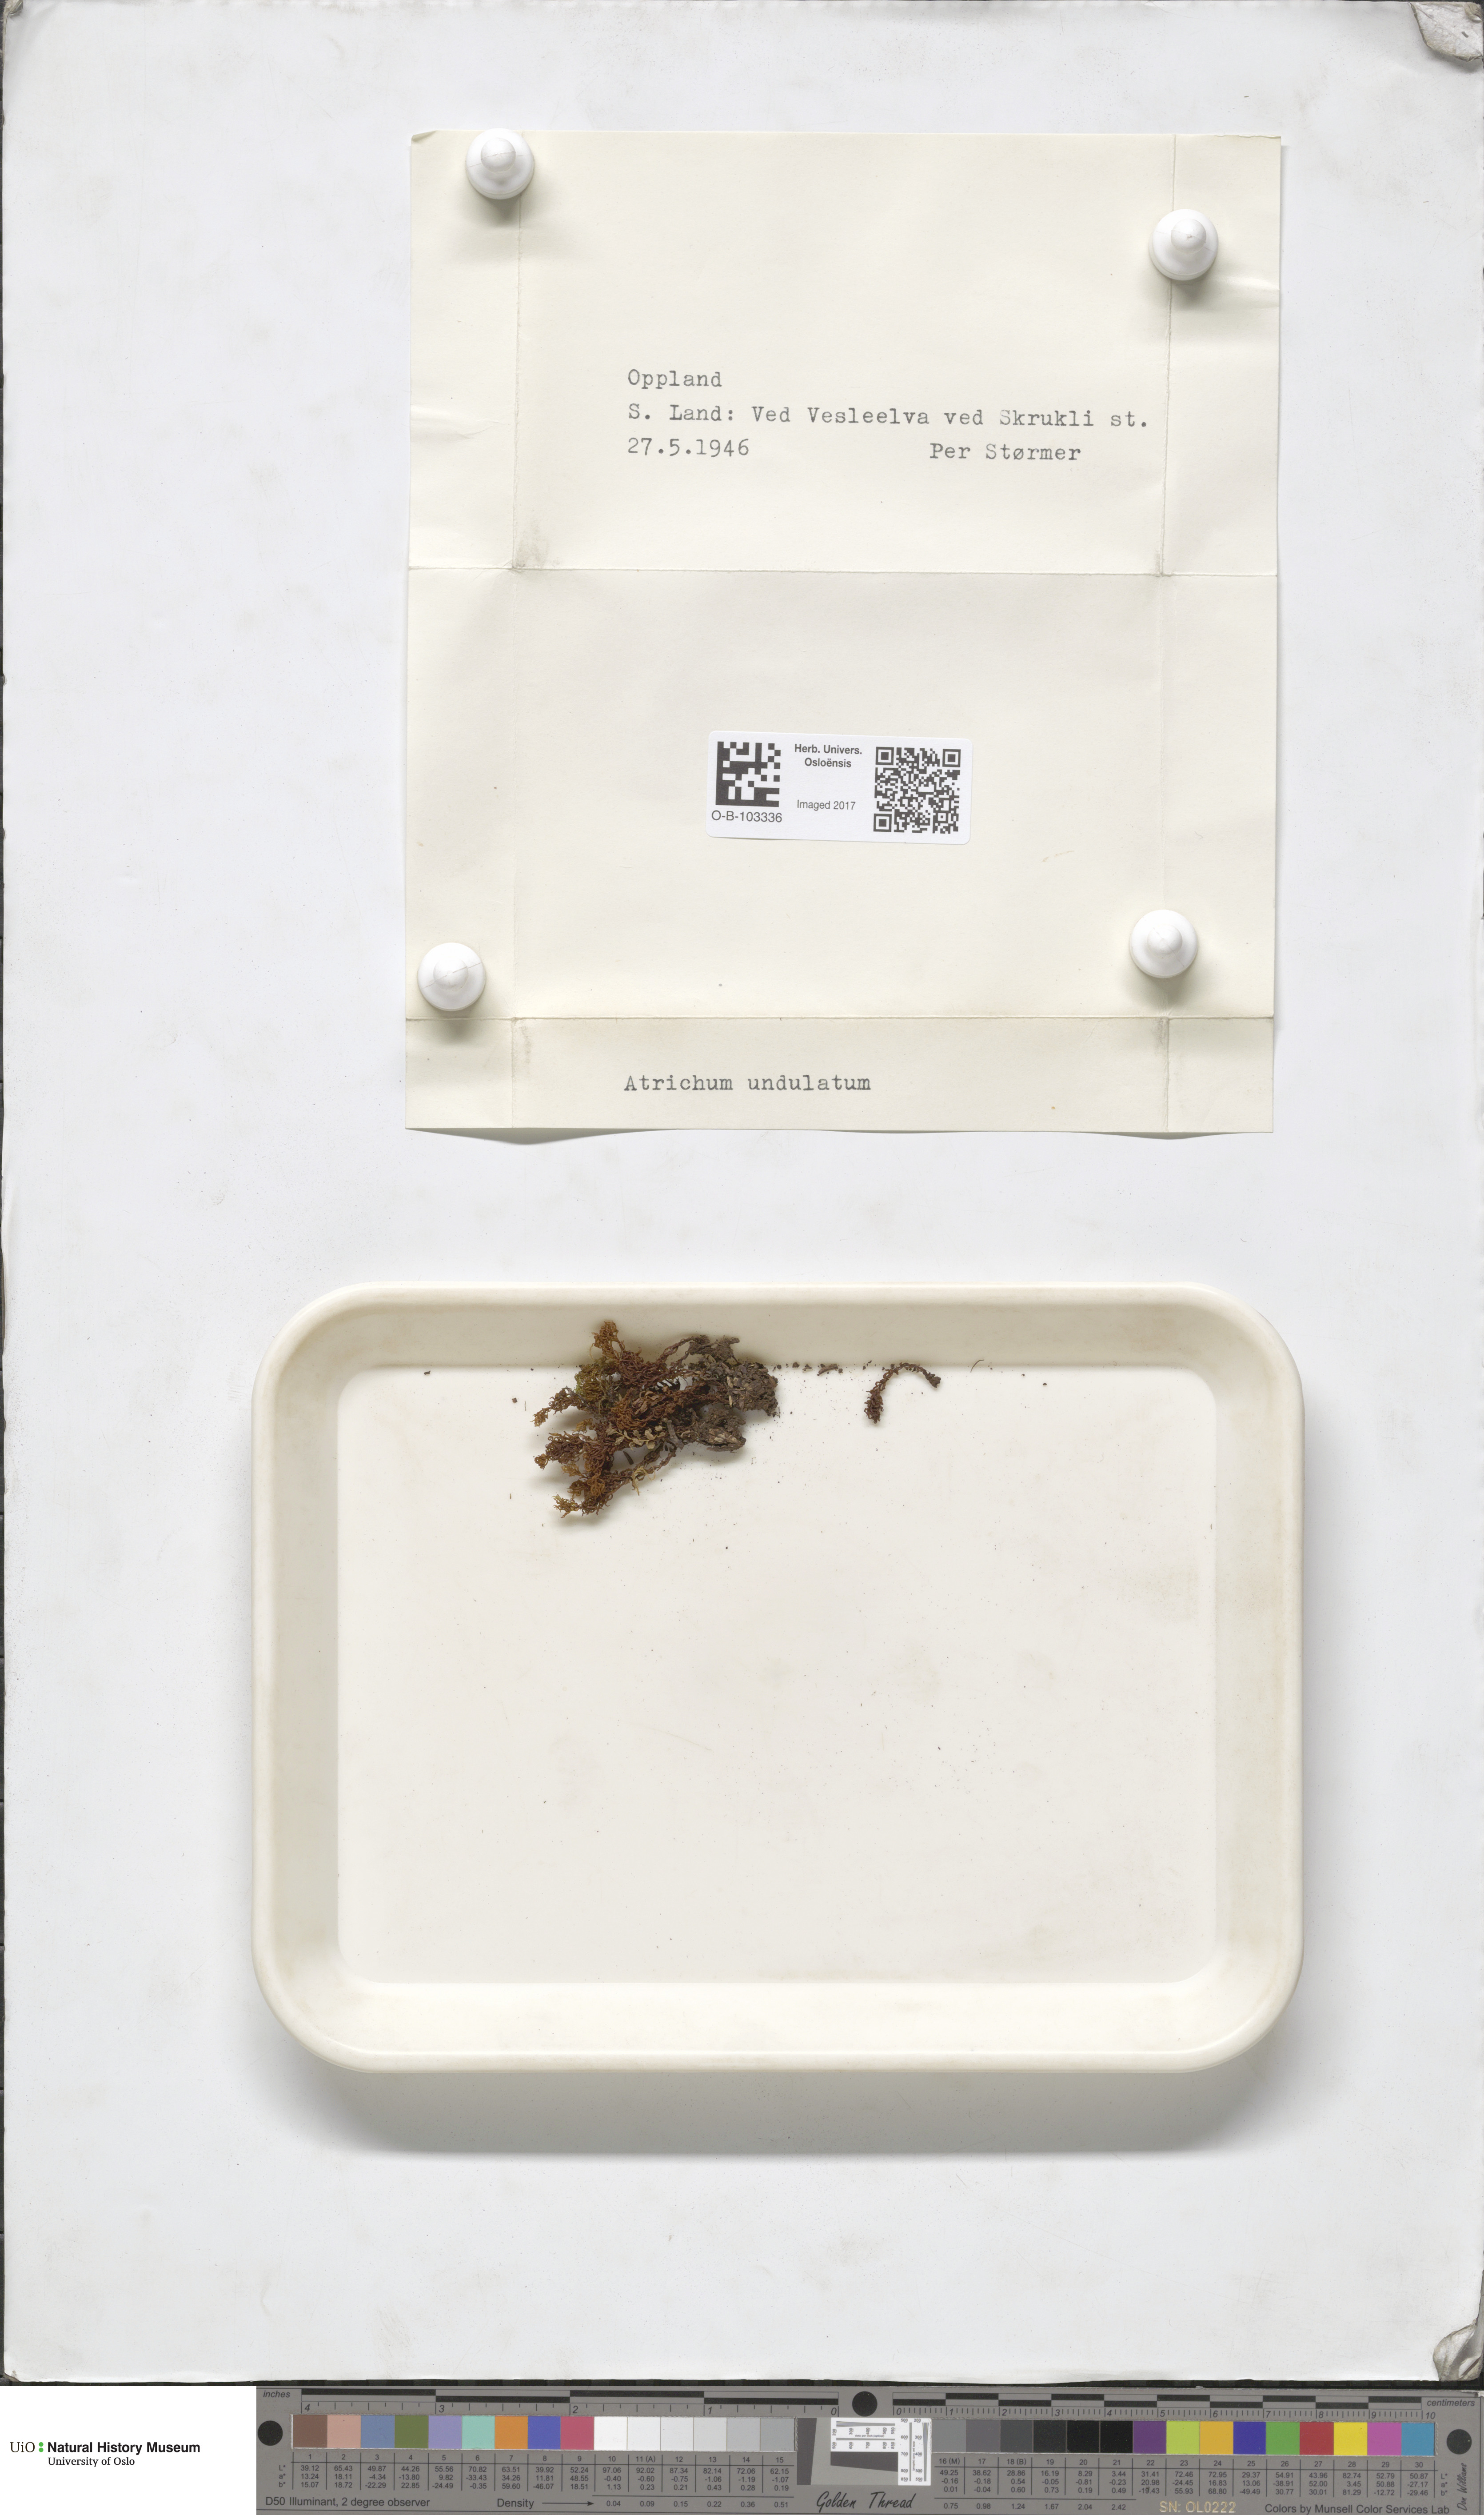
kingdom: Plantae
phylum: Bryophyta
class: Polytrichopsida
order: Polytrichales
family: Polytrichaceae
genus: Atrichum
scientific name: Atrichum undulatum
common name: Common smoothcap
